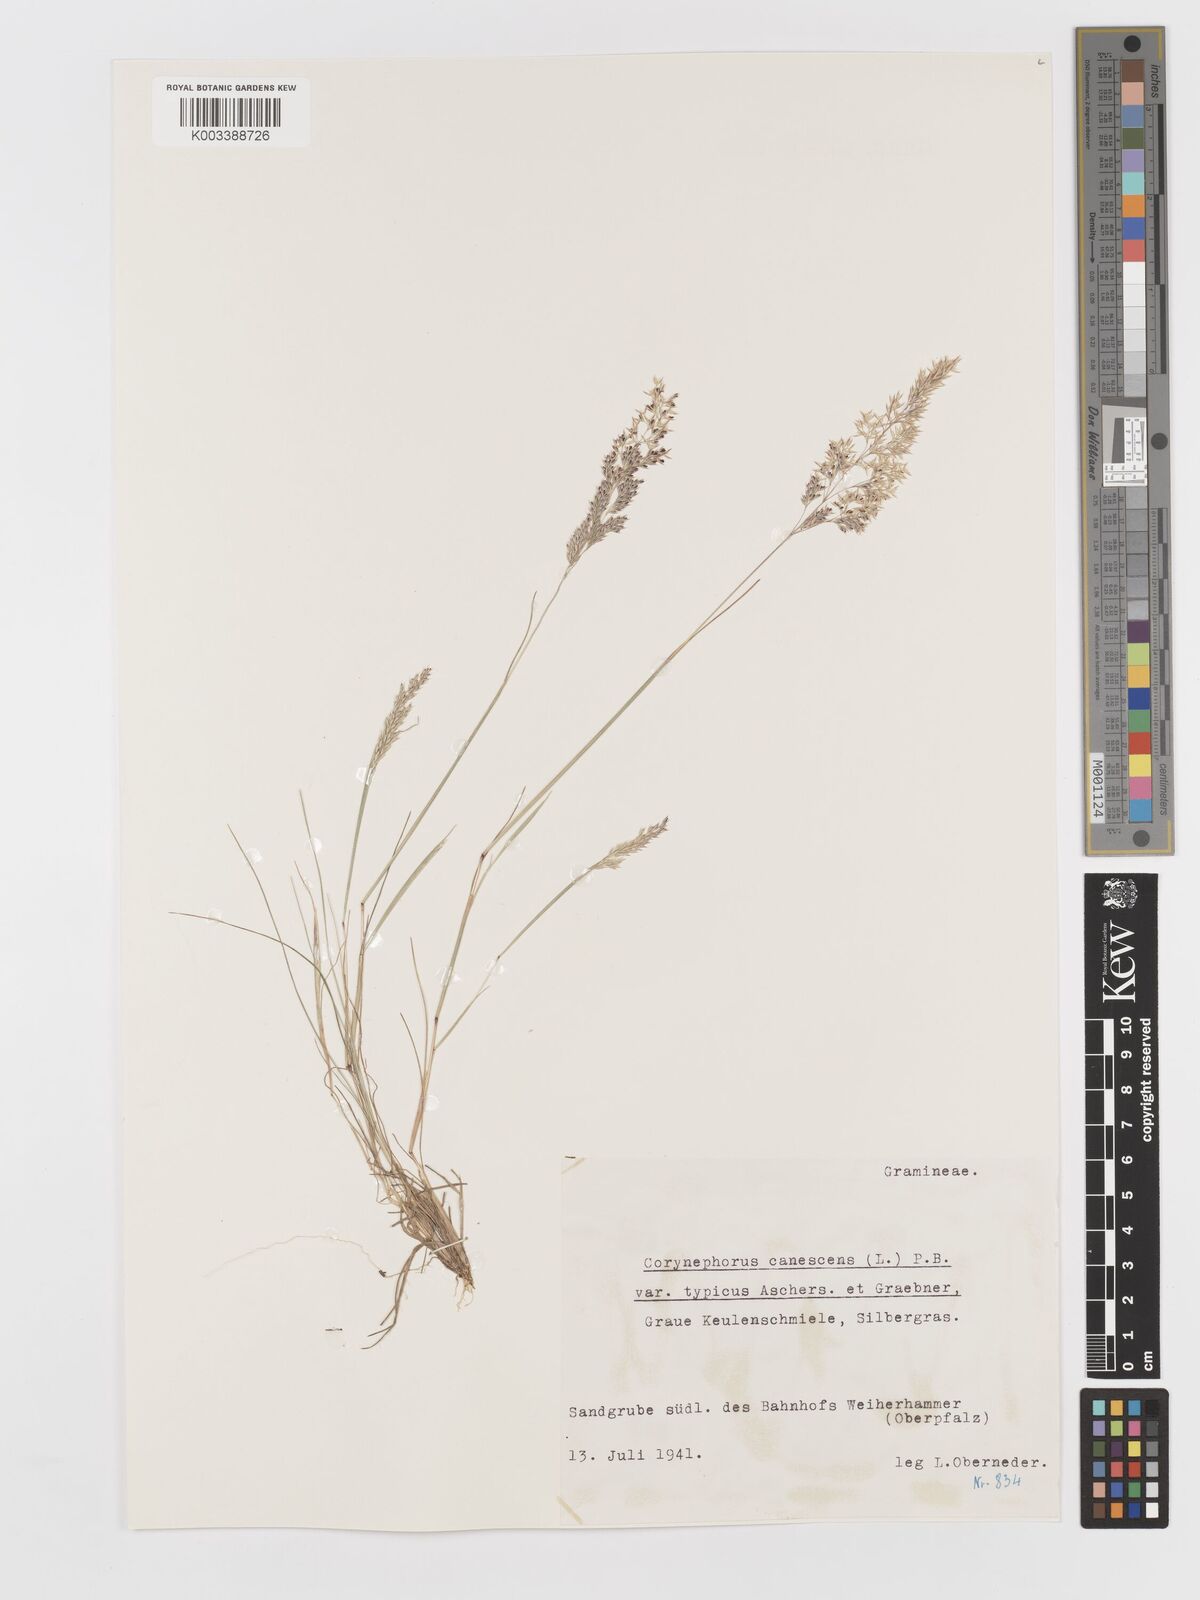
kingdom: Plantae
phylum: Tracheophyta
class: Liliopsida
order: Poales
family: Poaceae
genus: Corynephorus
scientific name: Corynephorus canescens
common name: Grey hair-grass
